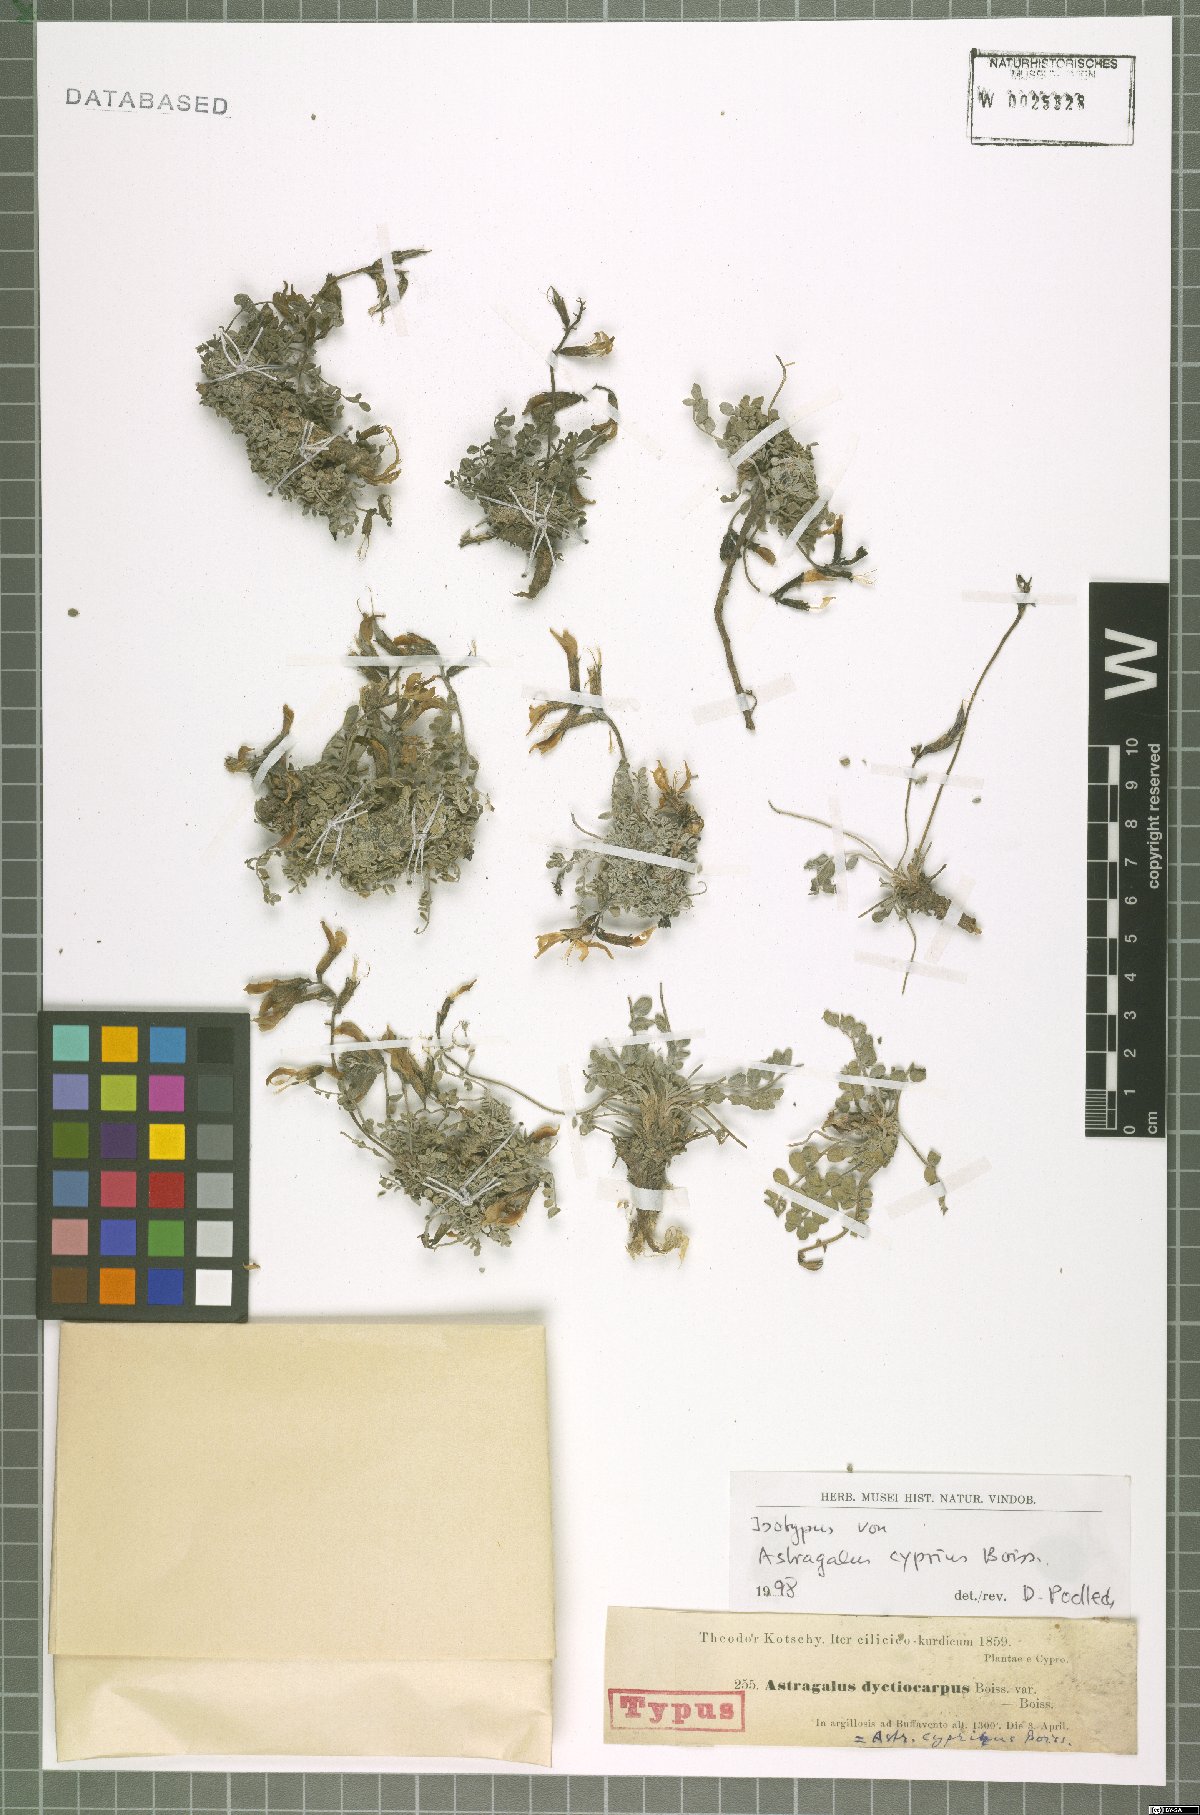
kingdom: Plantae
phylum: Tracheophyta
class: Magnoliopsida
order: Fabales
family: Fabaceae
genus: Astragalus
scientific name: Astragalus cyprius
